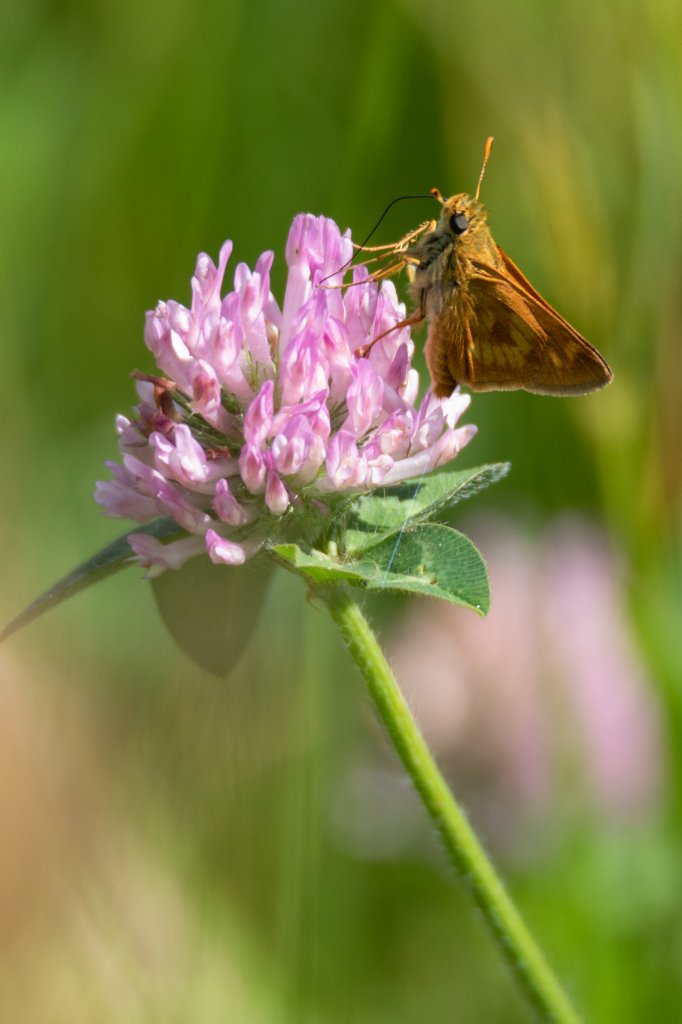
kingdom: Animalia
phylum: Arthropoda
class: Insecta
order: Lepidoptera
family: Hesperiidae
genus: Polites
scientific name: Polites
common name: Long Dash Skipper
